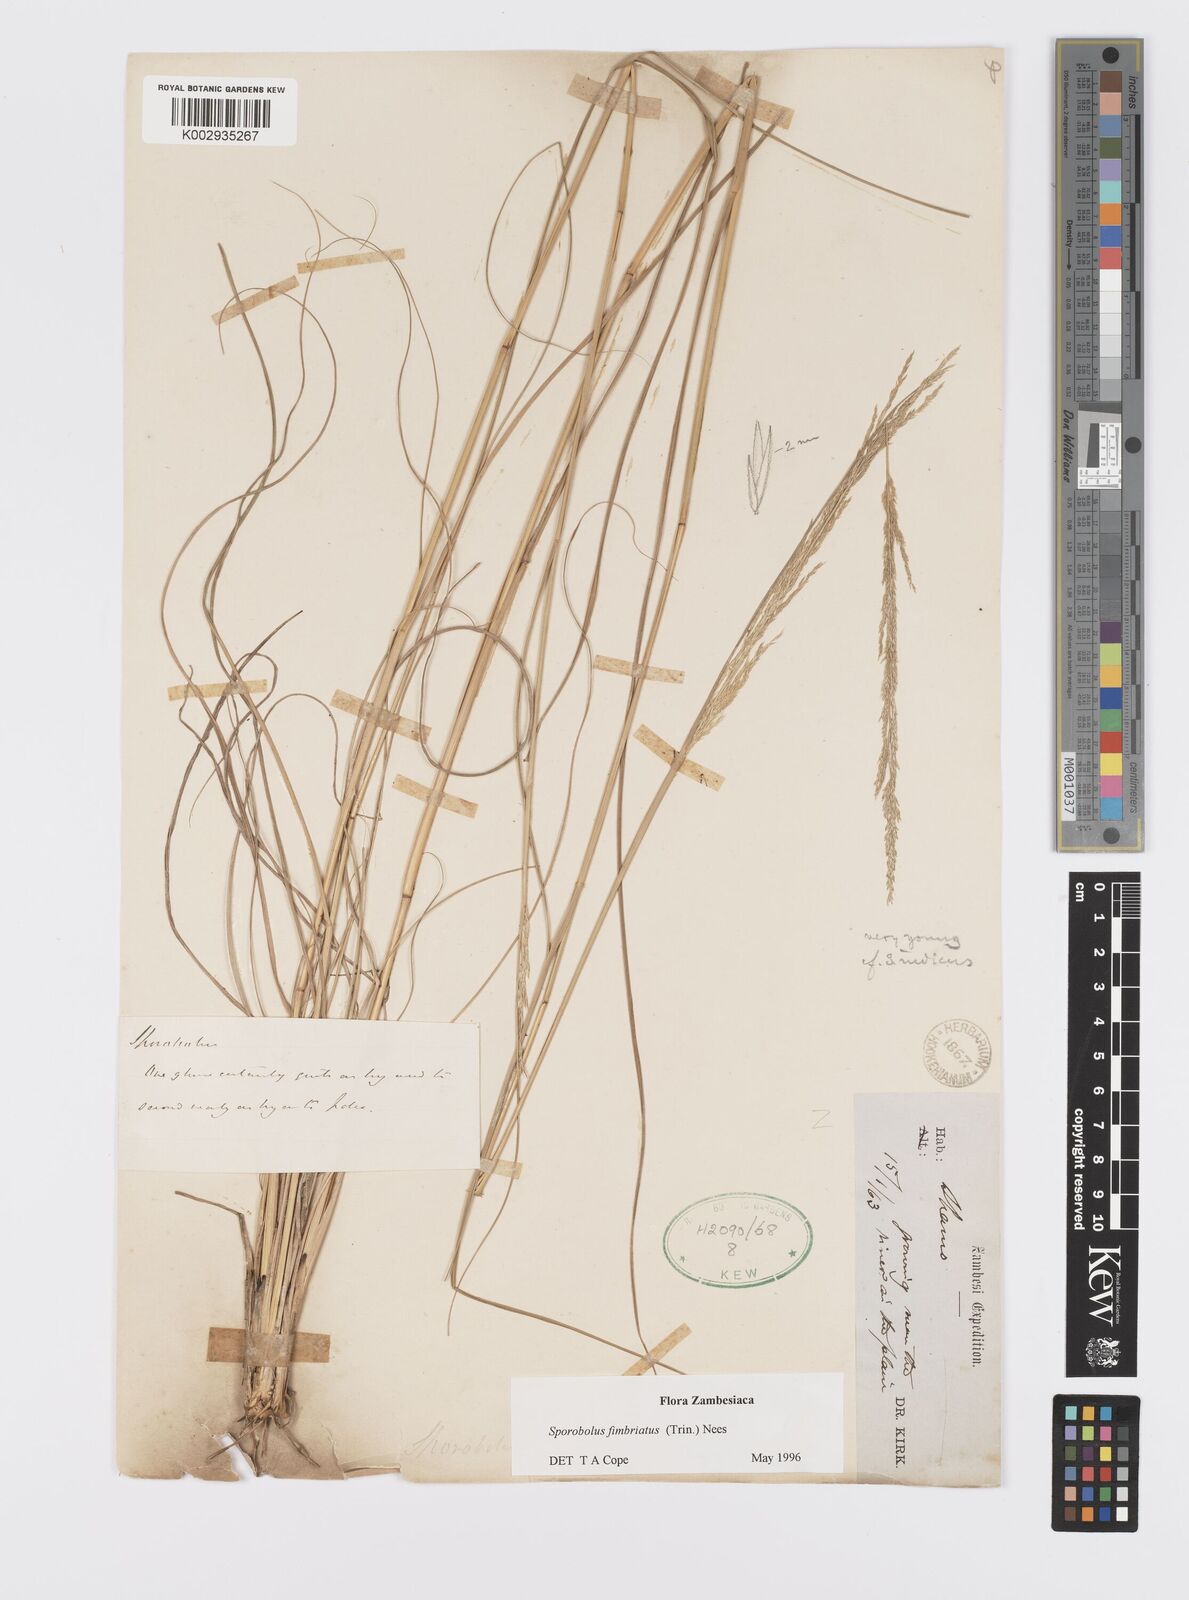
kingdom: Plantae
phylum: Tracheophyta
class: Liliopsida
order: Poales
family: Poaceae
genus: Sporobolus
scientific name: Sporobolus fimbriatus
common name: Fringed dropseed
